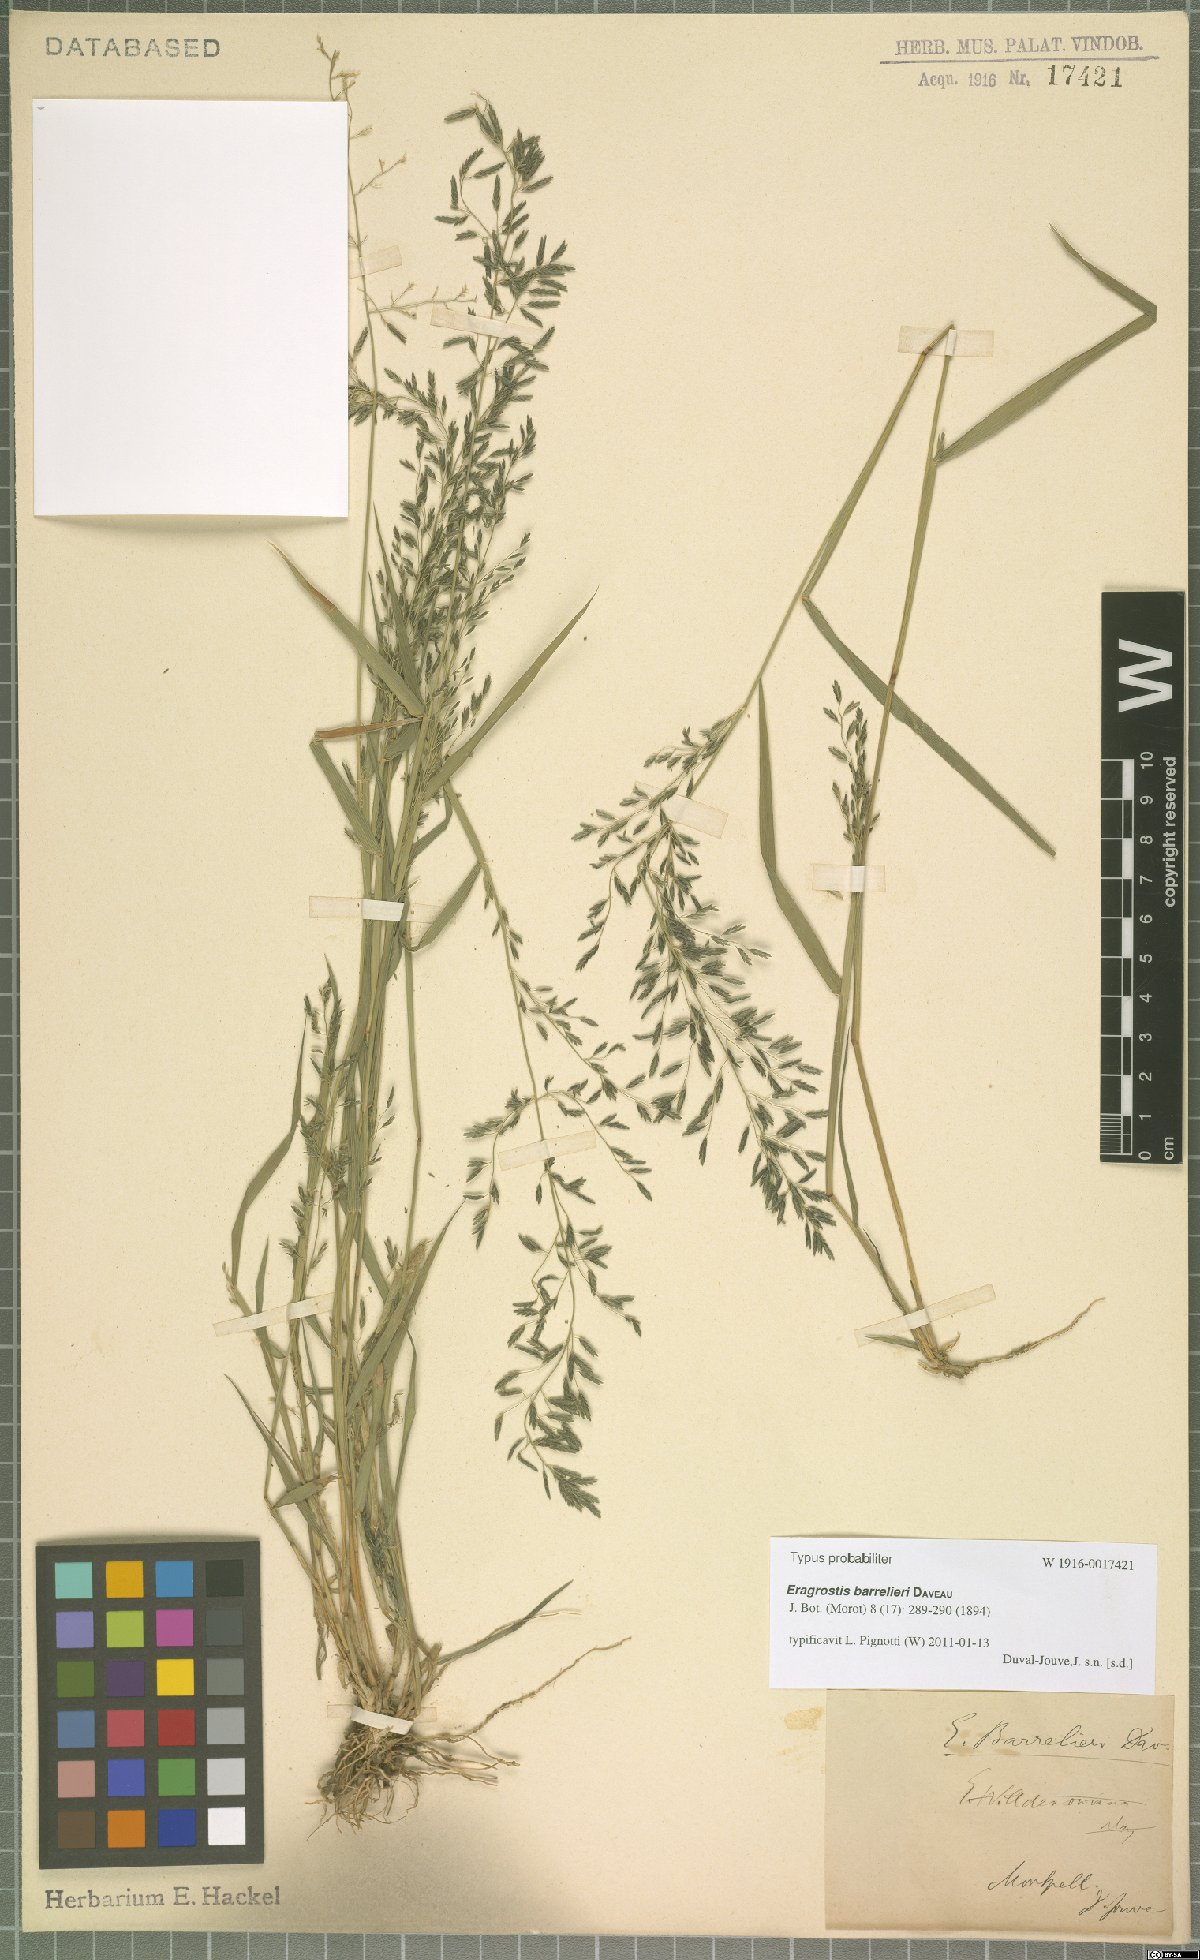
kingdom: Plantae
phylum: Tracheophyta
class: Liliopsida
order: Poales
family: Poaceae
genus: Eragrostis
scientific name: Eragrostis barrelieri
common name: Mediterranean lovegrass
